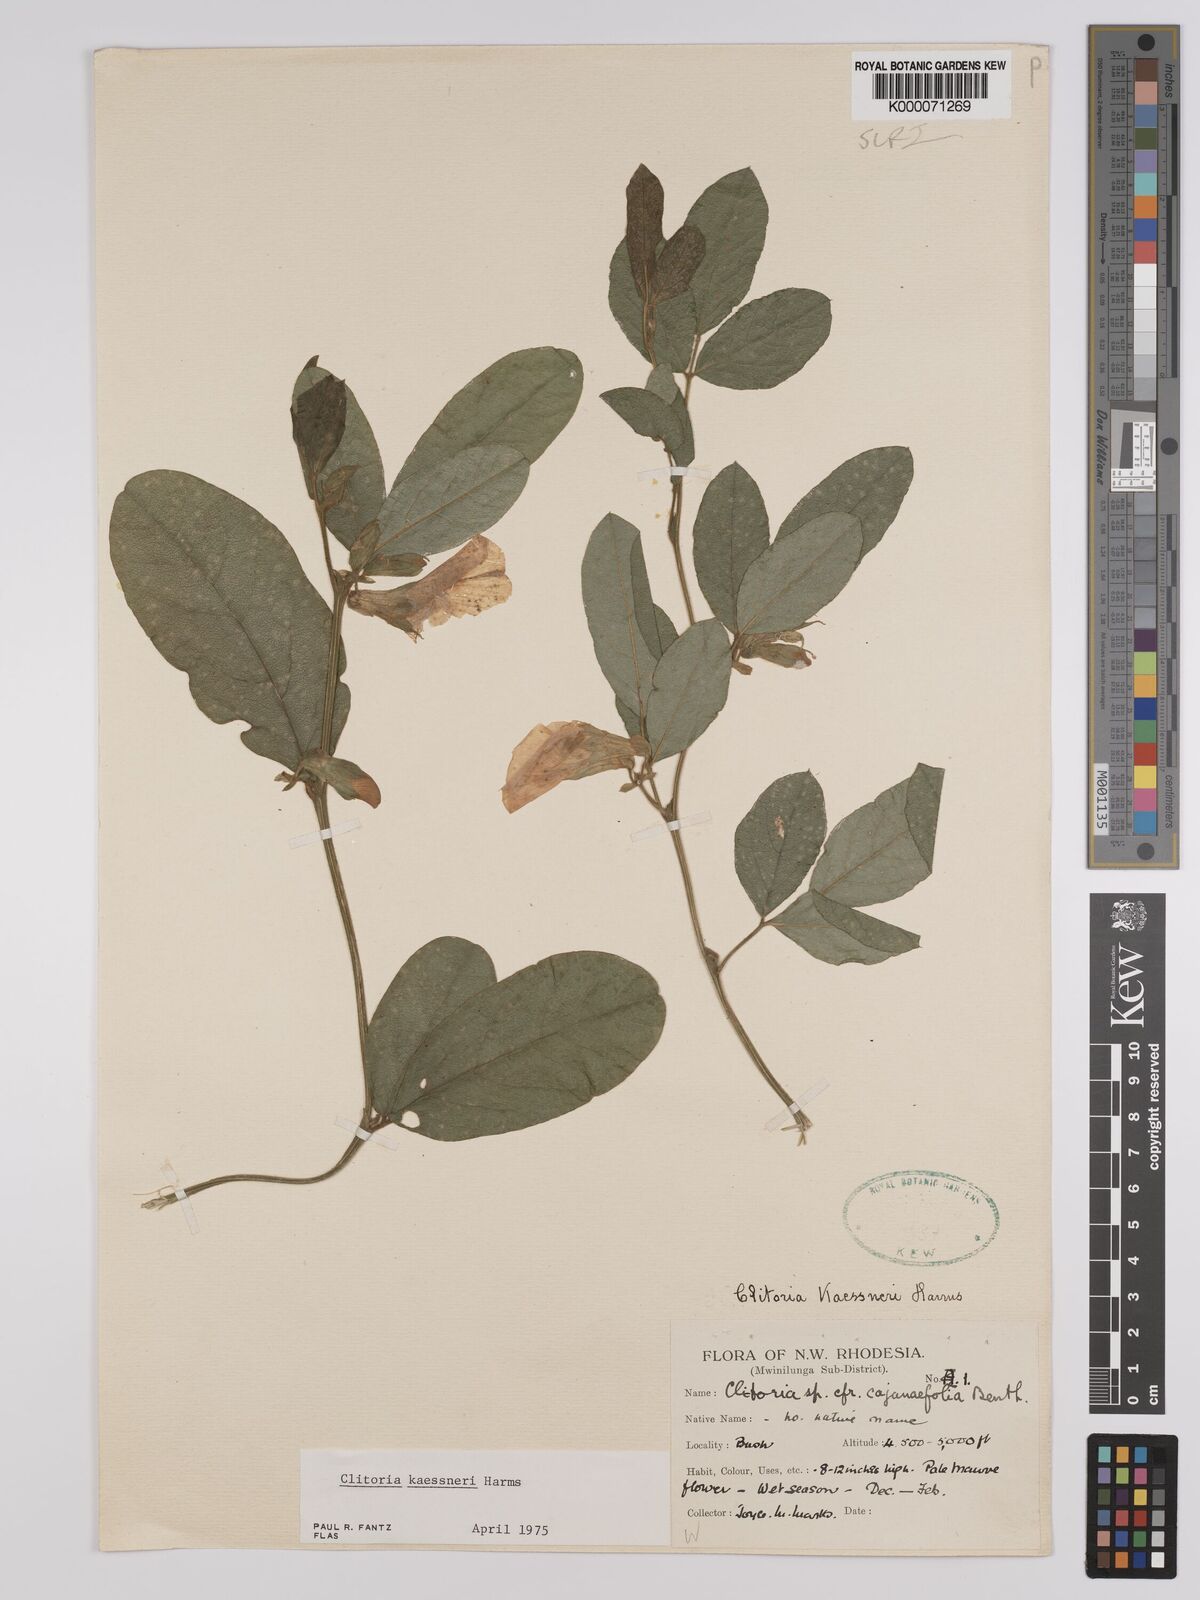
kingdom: Plantae
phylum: Tracheophyta
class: Magnoliopsida
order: Fabales
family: Fabaceae
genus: Clitoria
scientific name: Clitoria kaessneri
